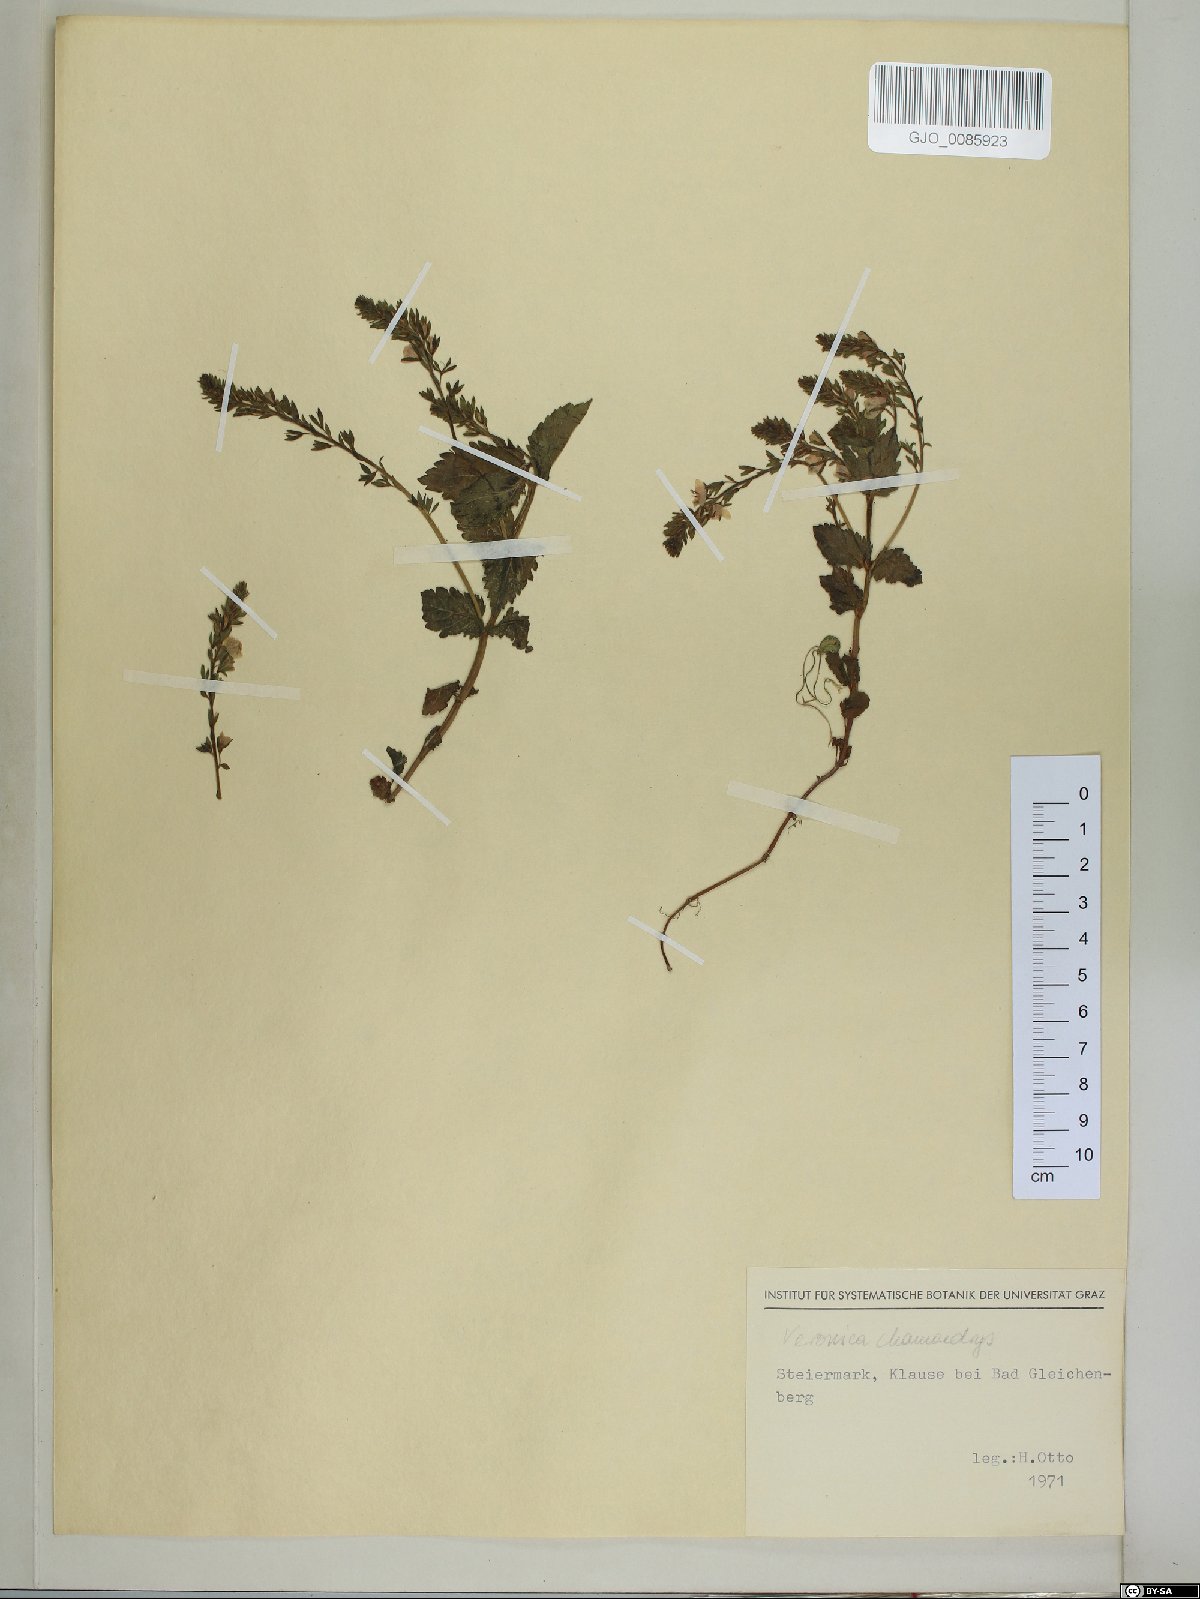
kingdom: Plantae
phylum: Tracheophyta
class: Magnoliopsida
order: Lamiales
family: Plantaginaceae
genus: Veronica
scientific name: Veronica chamaedrys
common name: Germander speedwell
